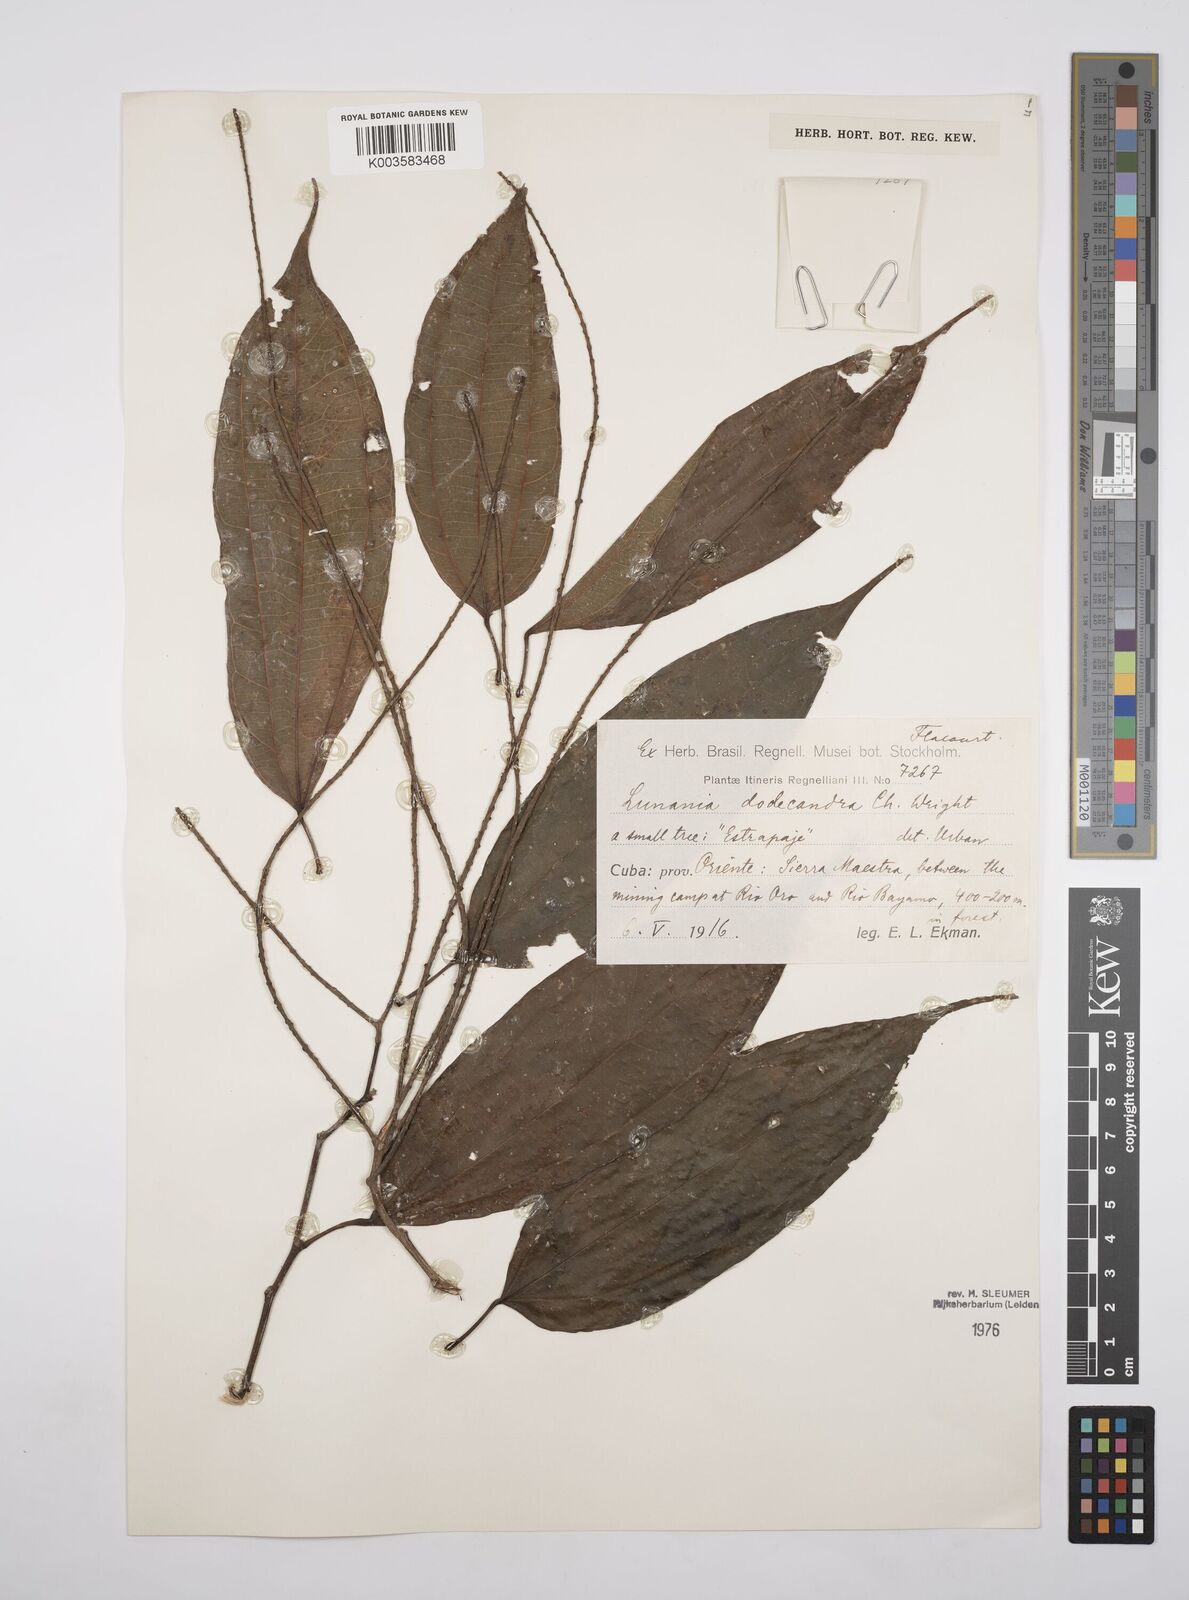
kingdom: Plantae
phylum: Tracheophyta
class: Magnoliopsida
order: Malpighiales
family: Salicaceae
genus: Lunania
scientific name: Lunania dodecandra
